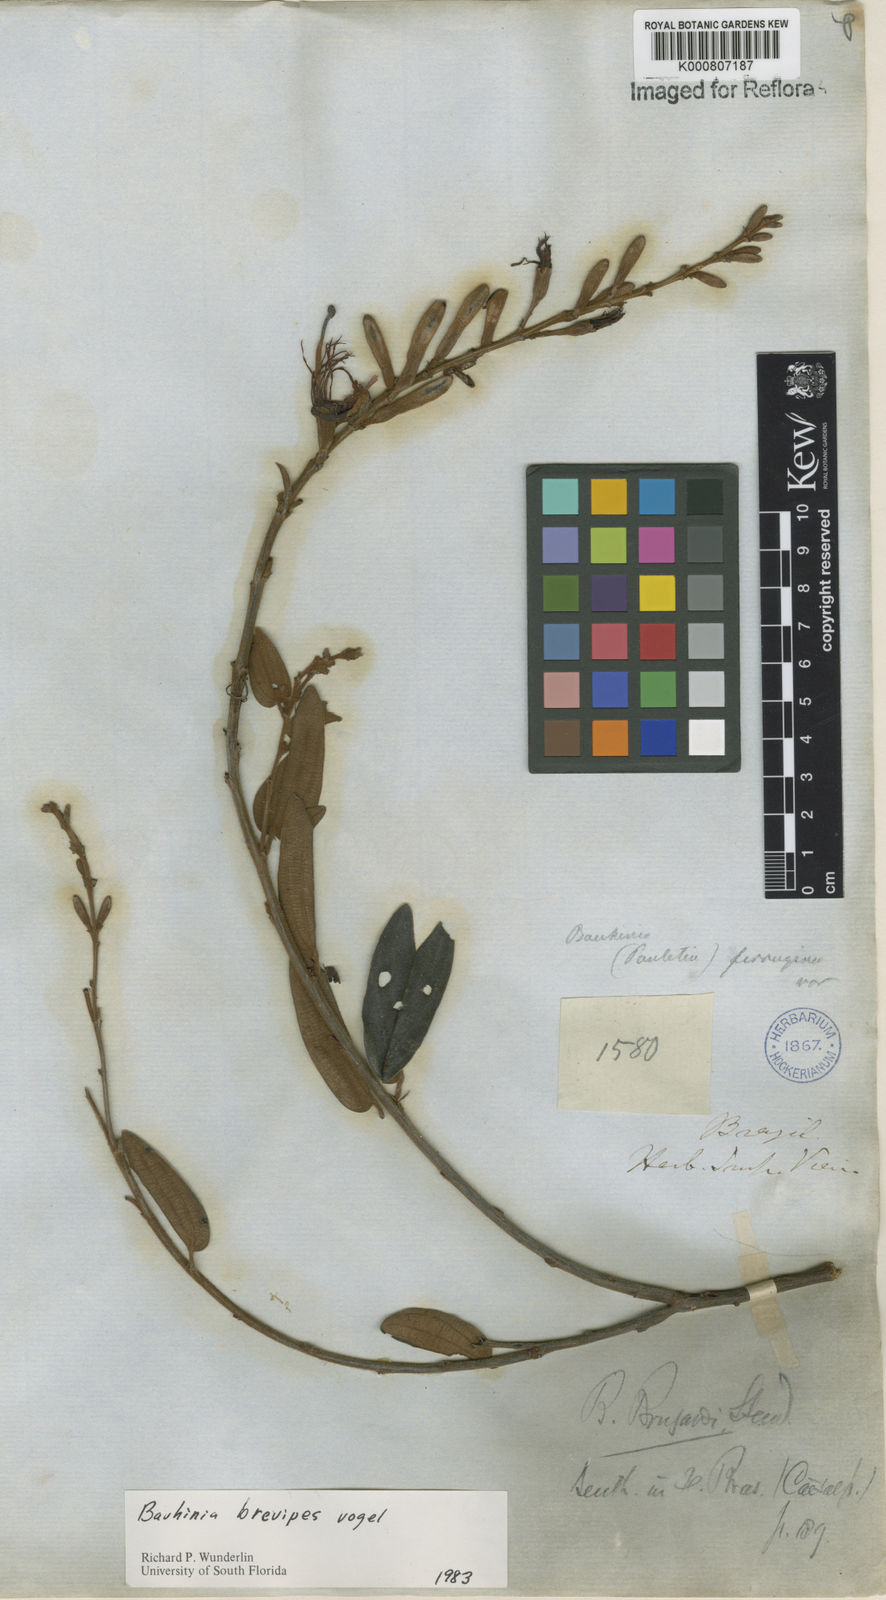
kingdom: Plantae
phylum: Tracheophyta
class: Magnoliopsida
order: Fabales
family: Fabaceae
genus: Bauhinia
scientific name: Bauhinia brevipes
